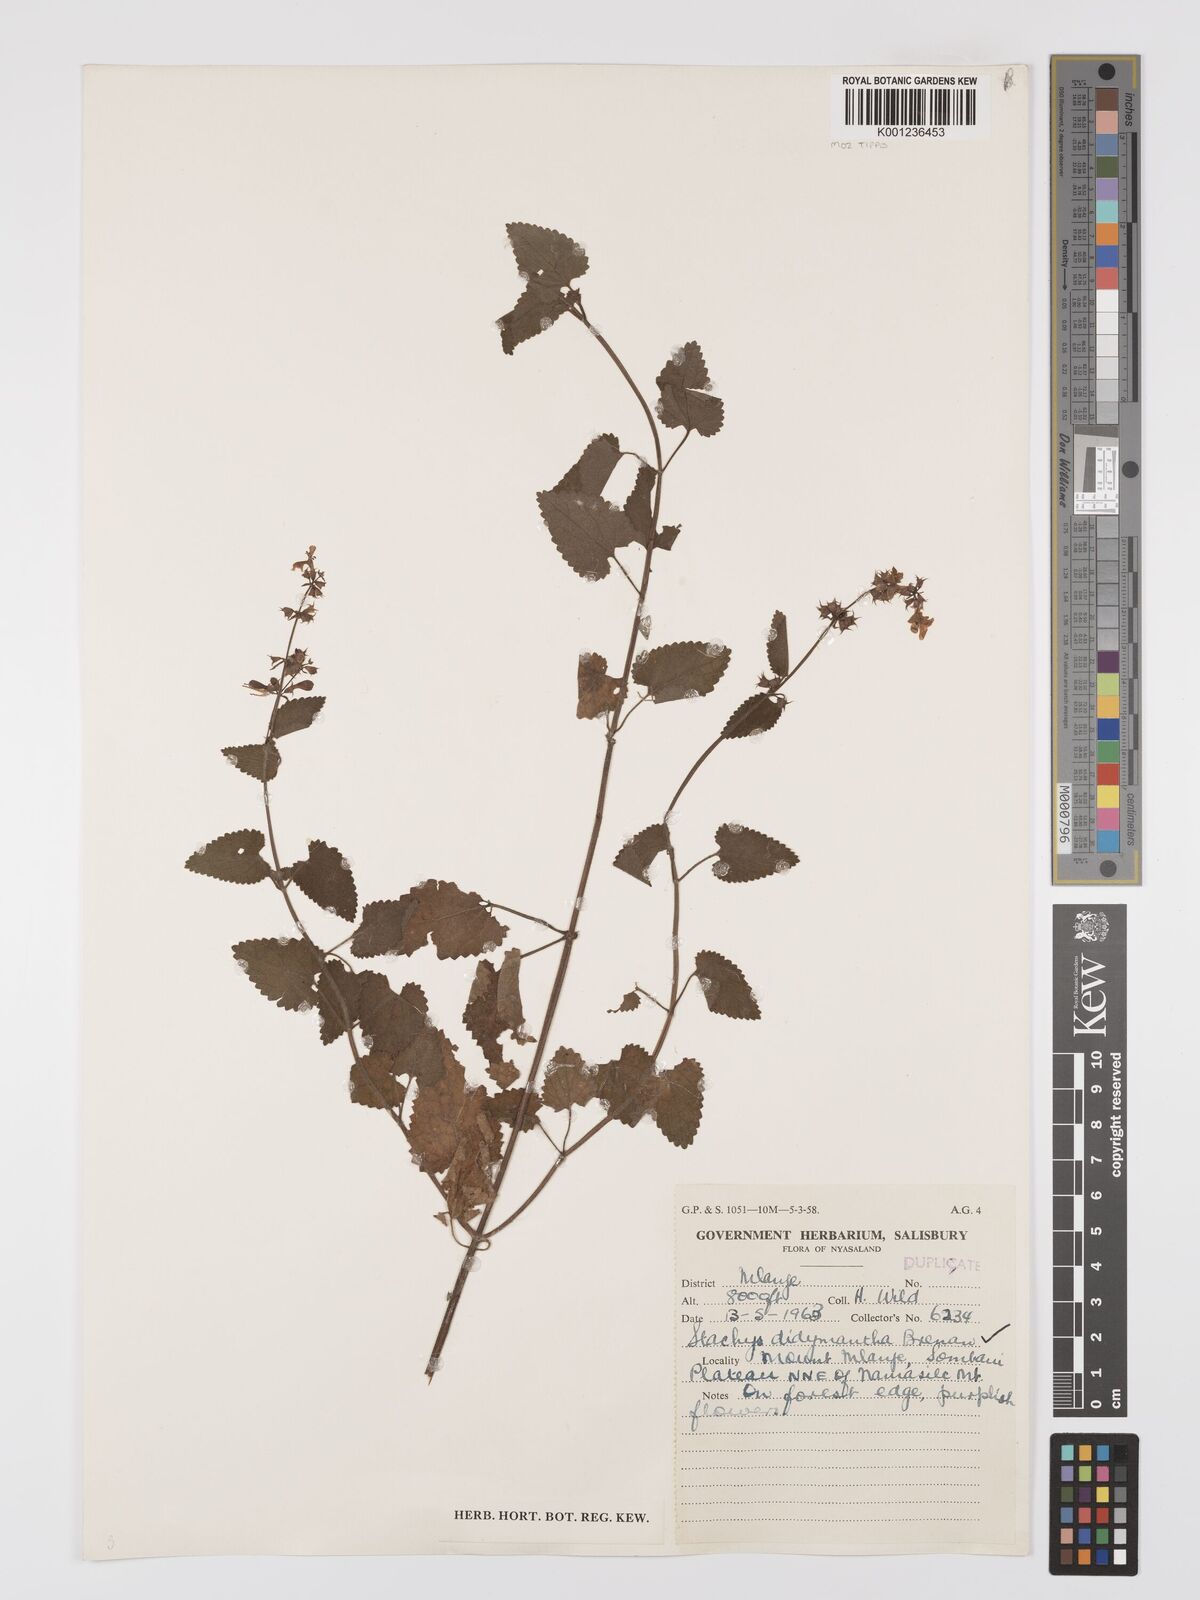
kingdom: Plantae
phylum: Tracheophyta
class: Magnoliopsida
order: Lamiales
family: Lamiaceae
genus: Stachys
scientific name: Stachys didymantha
